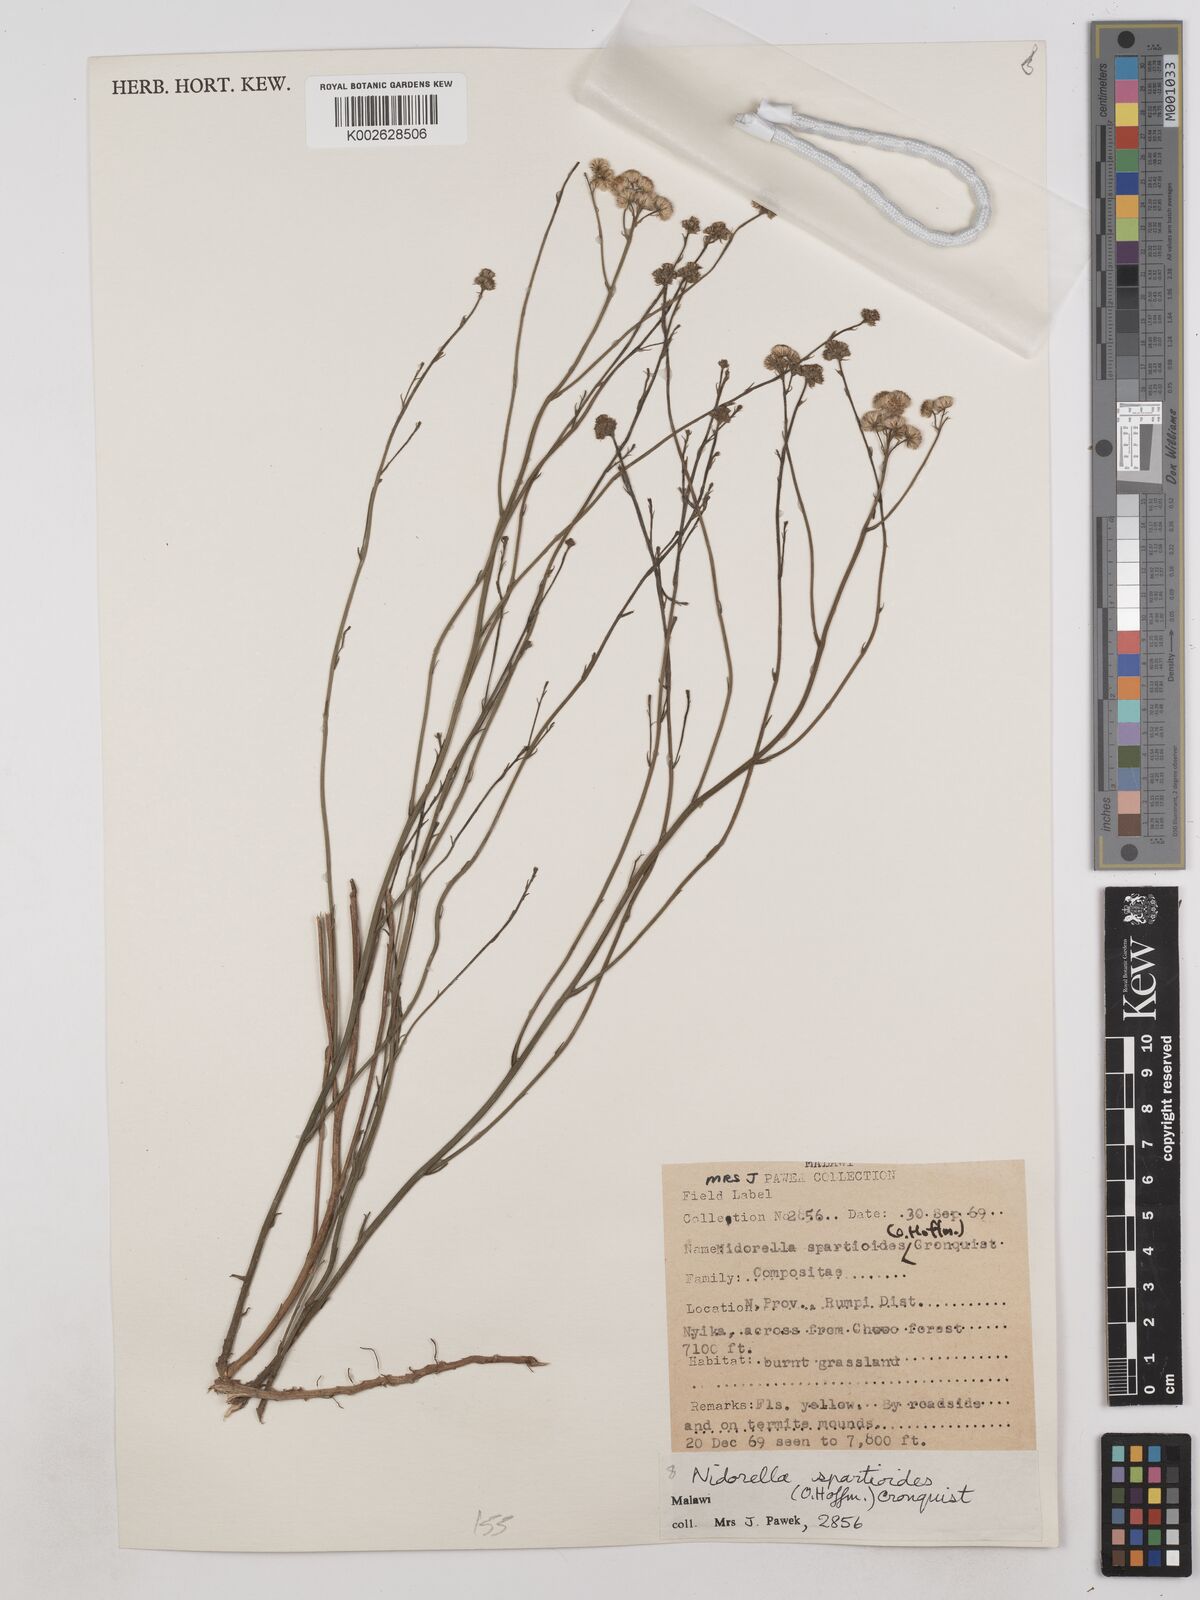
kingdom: Plantae
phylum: Tracheophyta
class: Magnoliopsida
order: Asterales
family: Asteraceae
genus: Nidorella
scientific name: Nidorella spartioides
